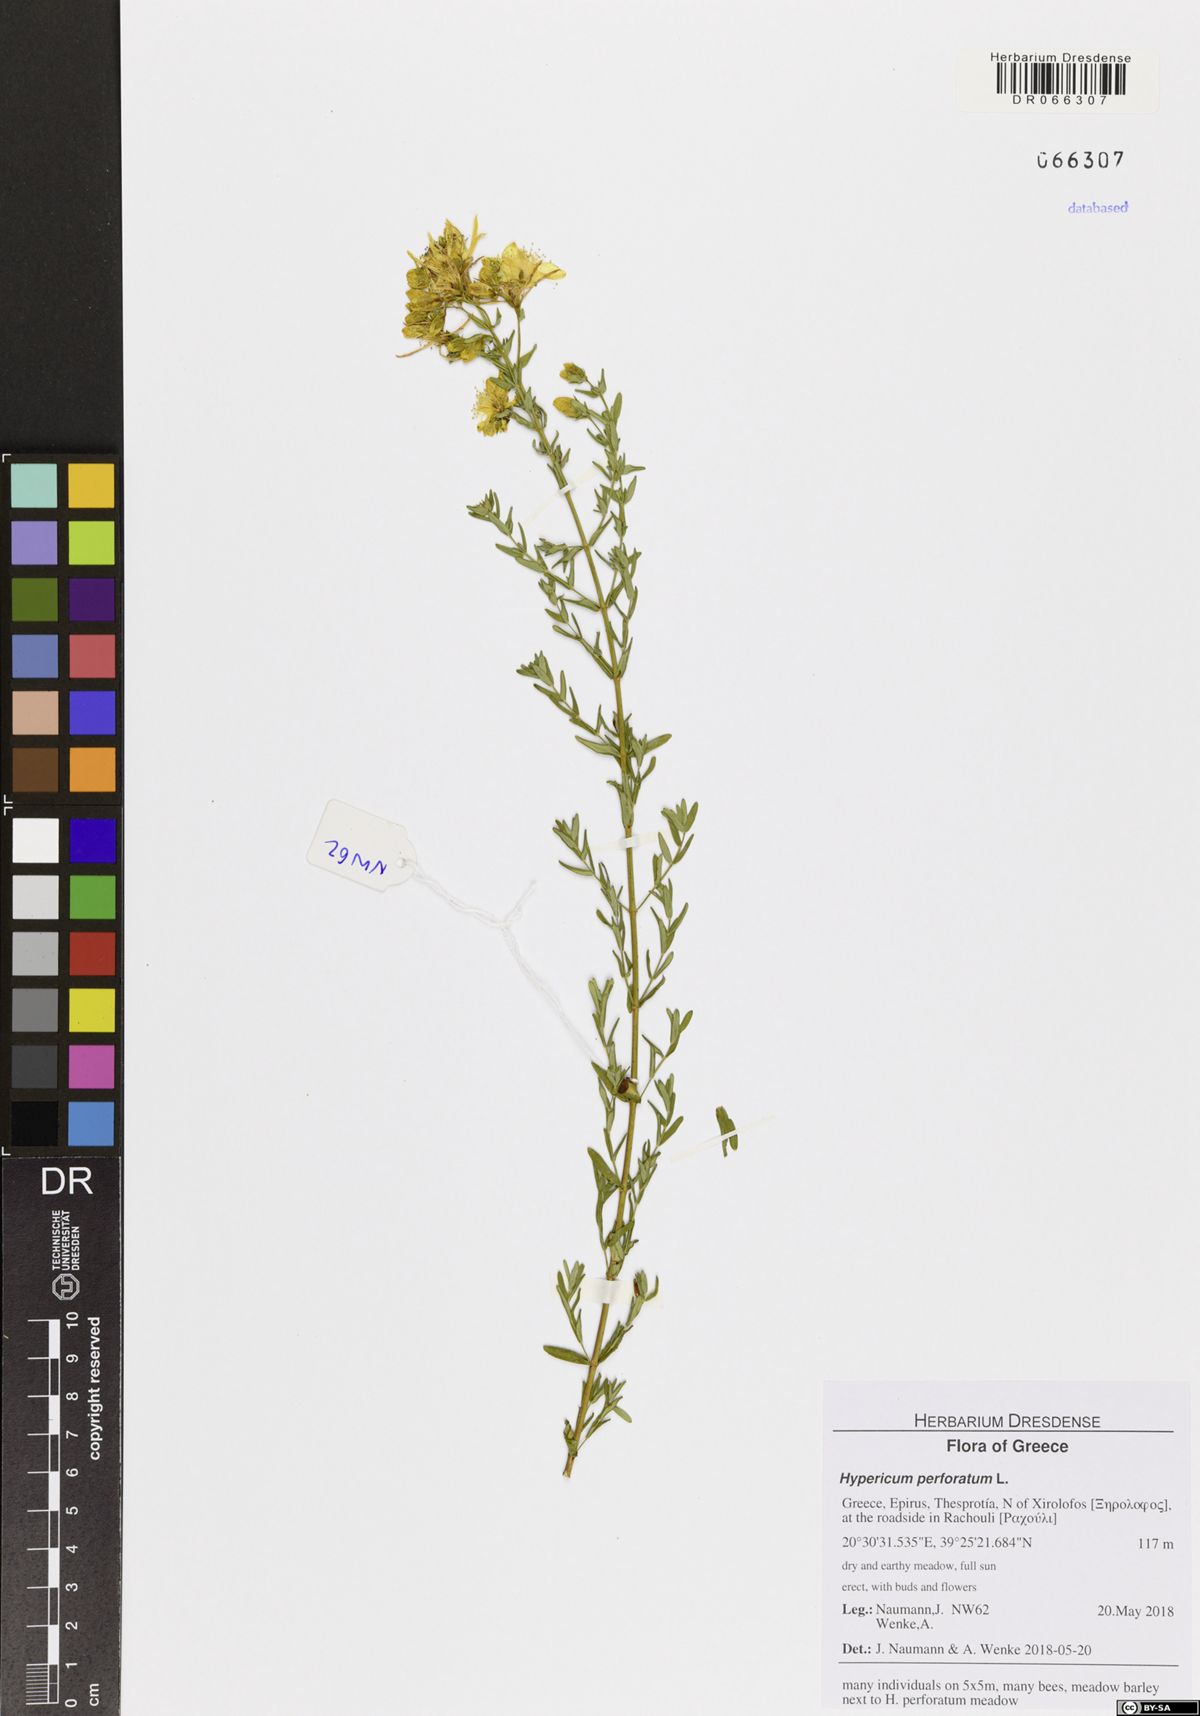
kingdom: Plantae
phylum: Tracheophyta
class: Magnoliopsida
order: Malpighiales
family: Hypericaceae
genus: Hypericum
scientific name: Hypericum perforatum
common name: Common st. johnswort
